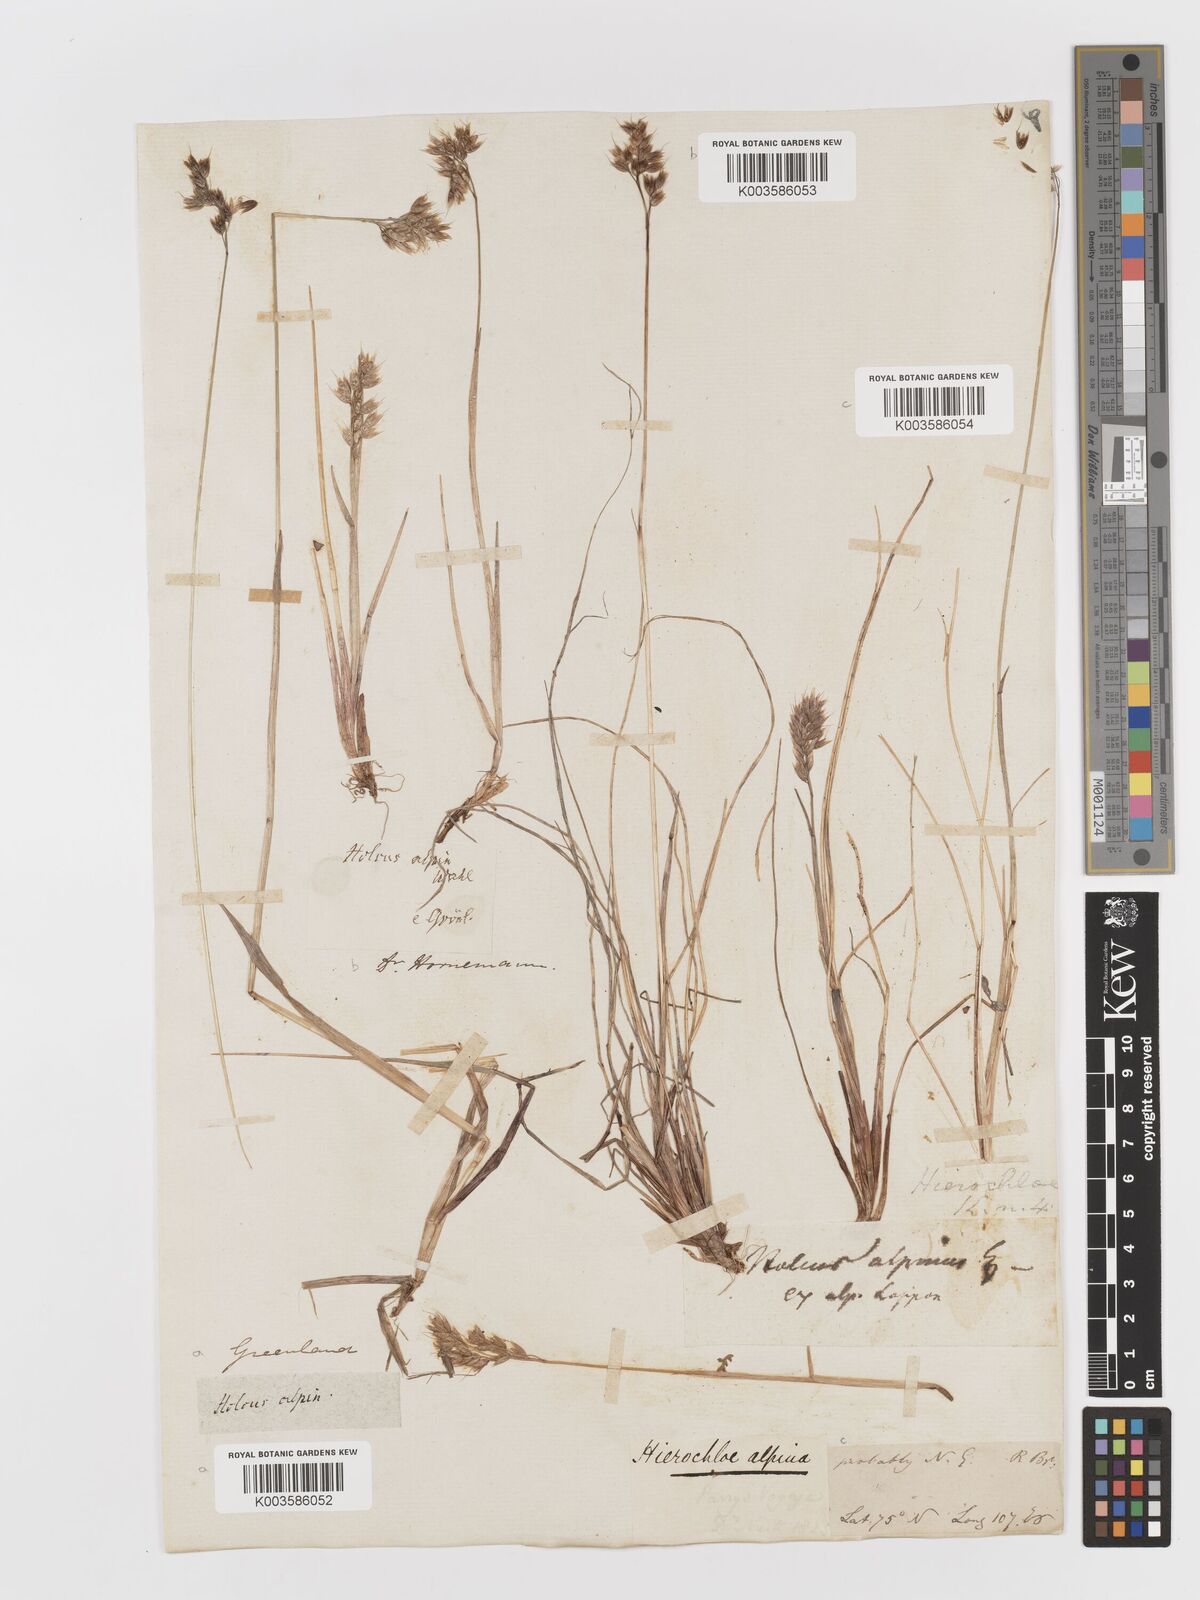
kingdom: Plantae
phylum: Tracheophyta
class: Liliopsida
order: Poales
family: Poaceae
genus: Anthoxanthum
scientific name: Anthoxanthum monticola
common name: Alpine sweetgrass
